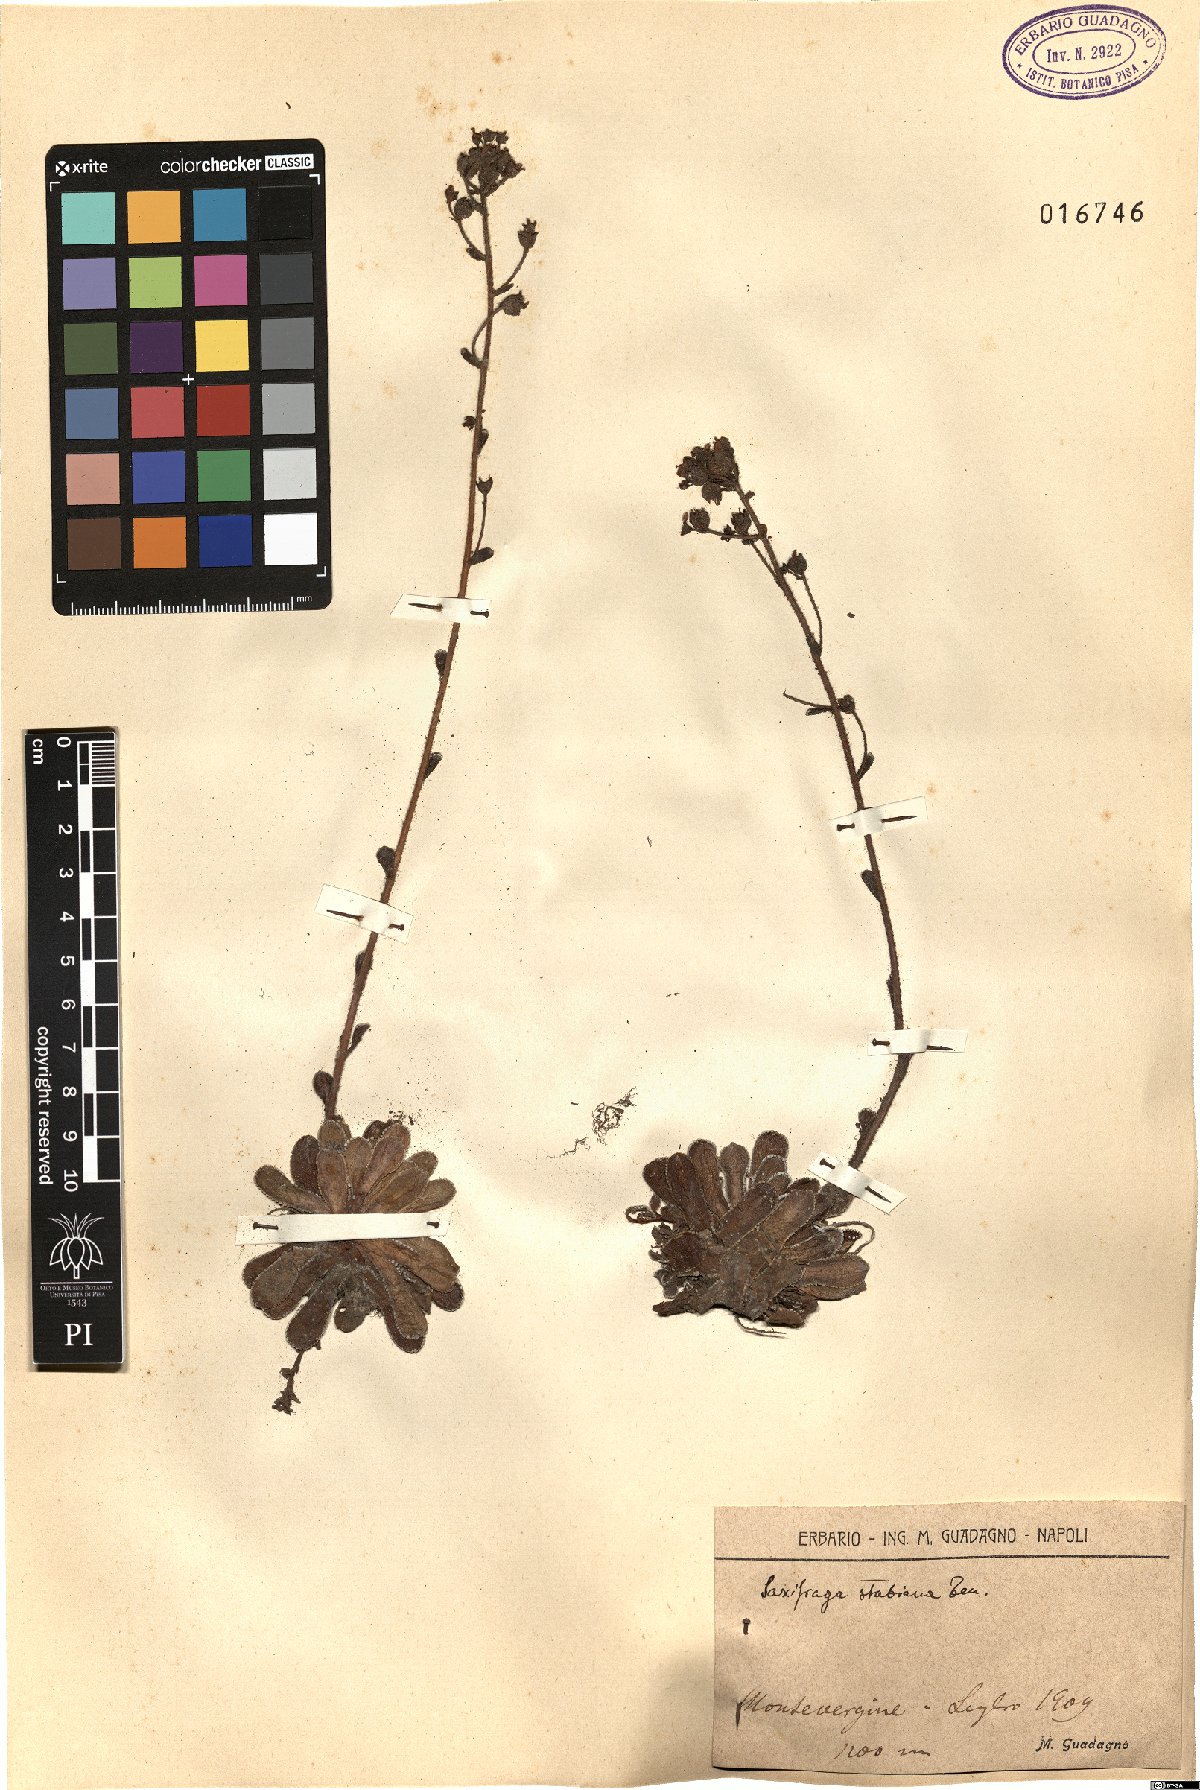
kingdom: Plantae
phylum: Tracheophyta
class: Magnoliopsida
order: Saxifragales
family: Saxifragaceae
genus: Saxifraga
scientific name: Saxifraga paniculata
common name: Livelong saxifrage
